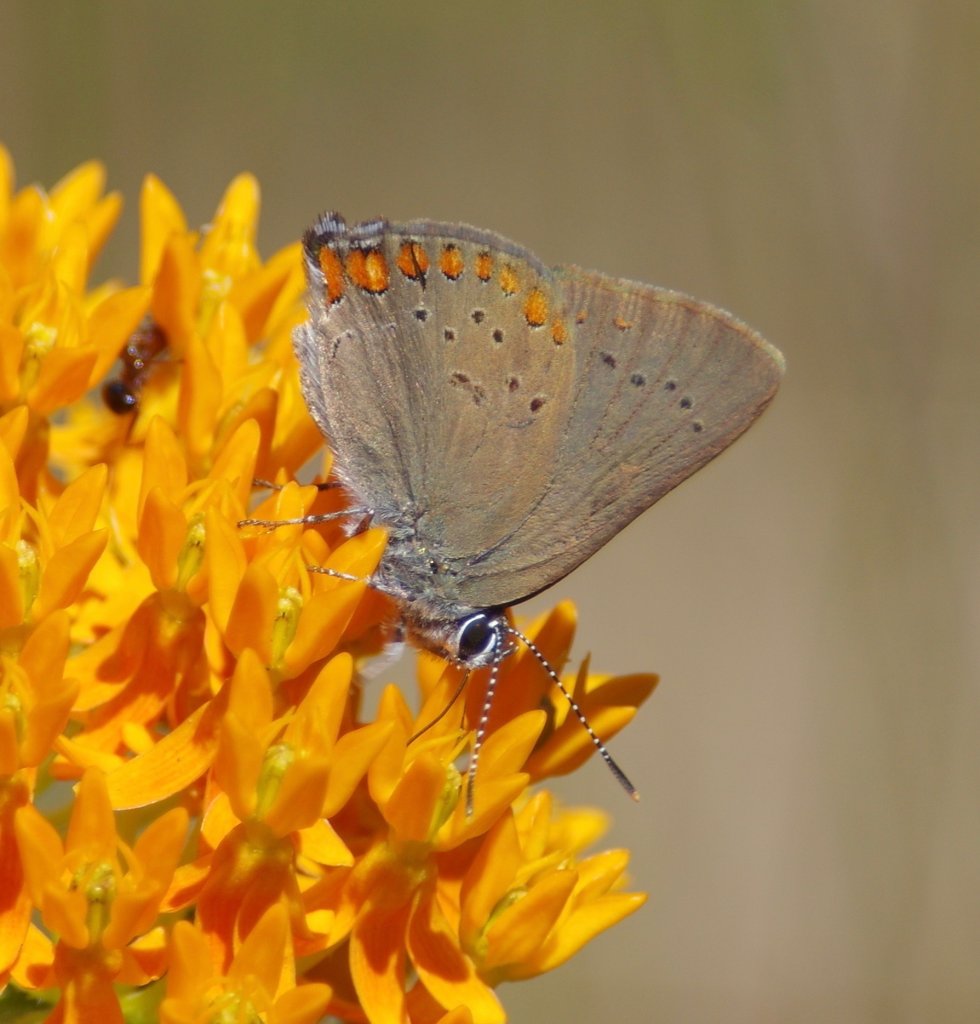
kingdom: Animalia
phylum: Arthropoda
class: Insecta
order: Lepidoptera
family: Lycaenidae
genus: Harkenclenus
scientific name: Harkenclenus titus
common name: Coral Hairstreak
